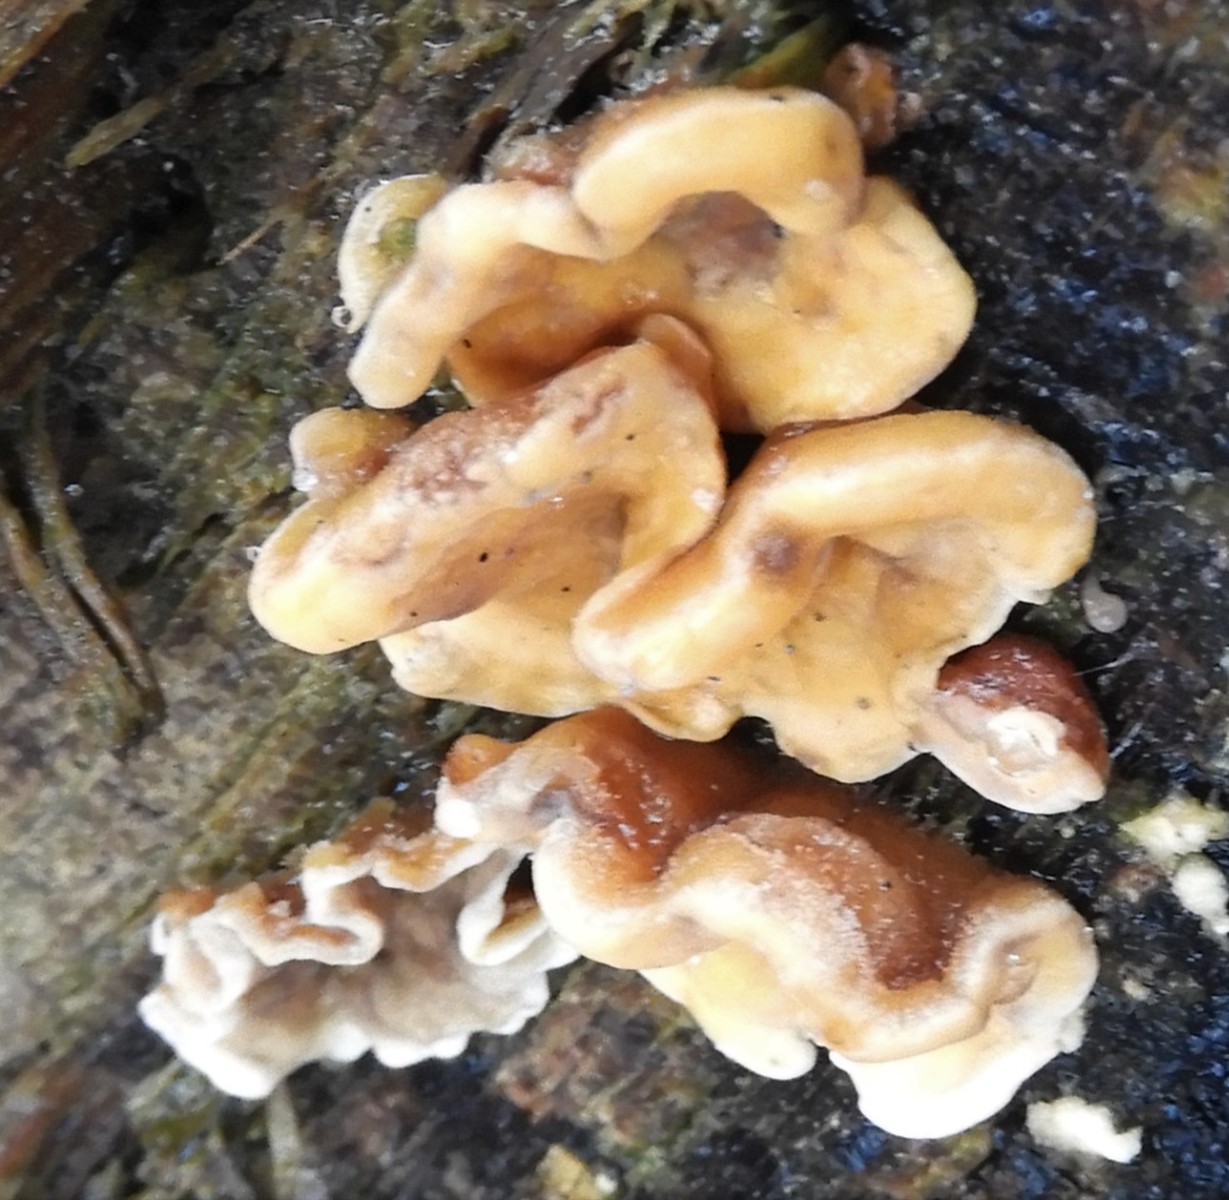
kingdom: Fungi
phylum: Basidiomycota
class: Agaricomycetes
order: Russulales
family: Stereaceae
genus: Stereum
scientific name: Stereum hirsutum
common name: håret lædersvamp
